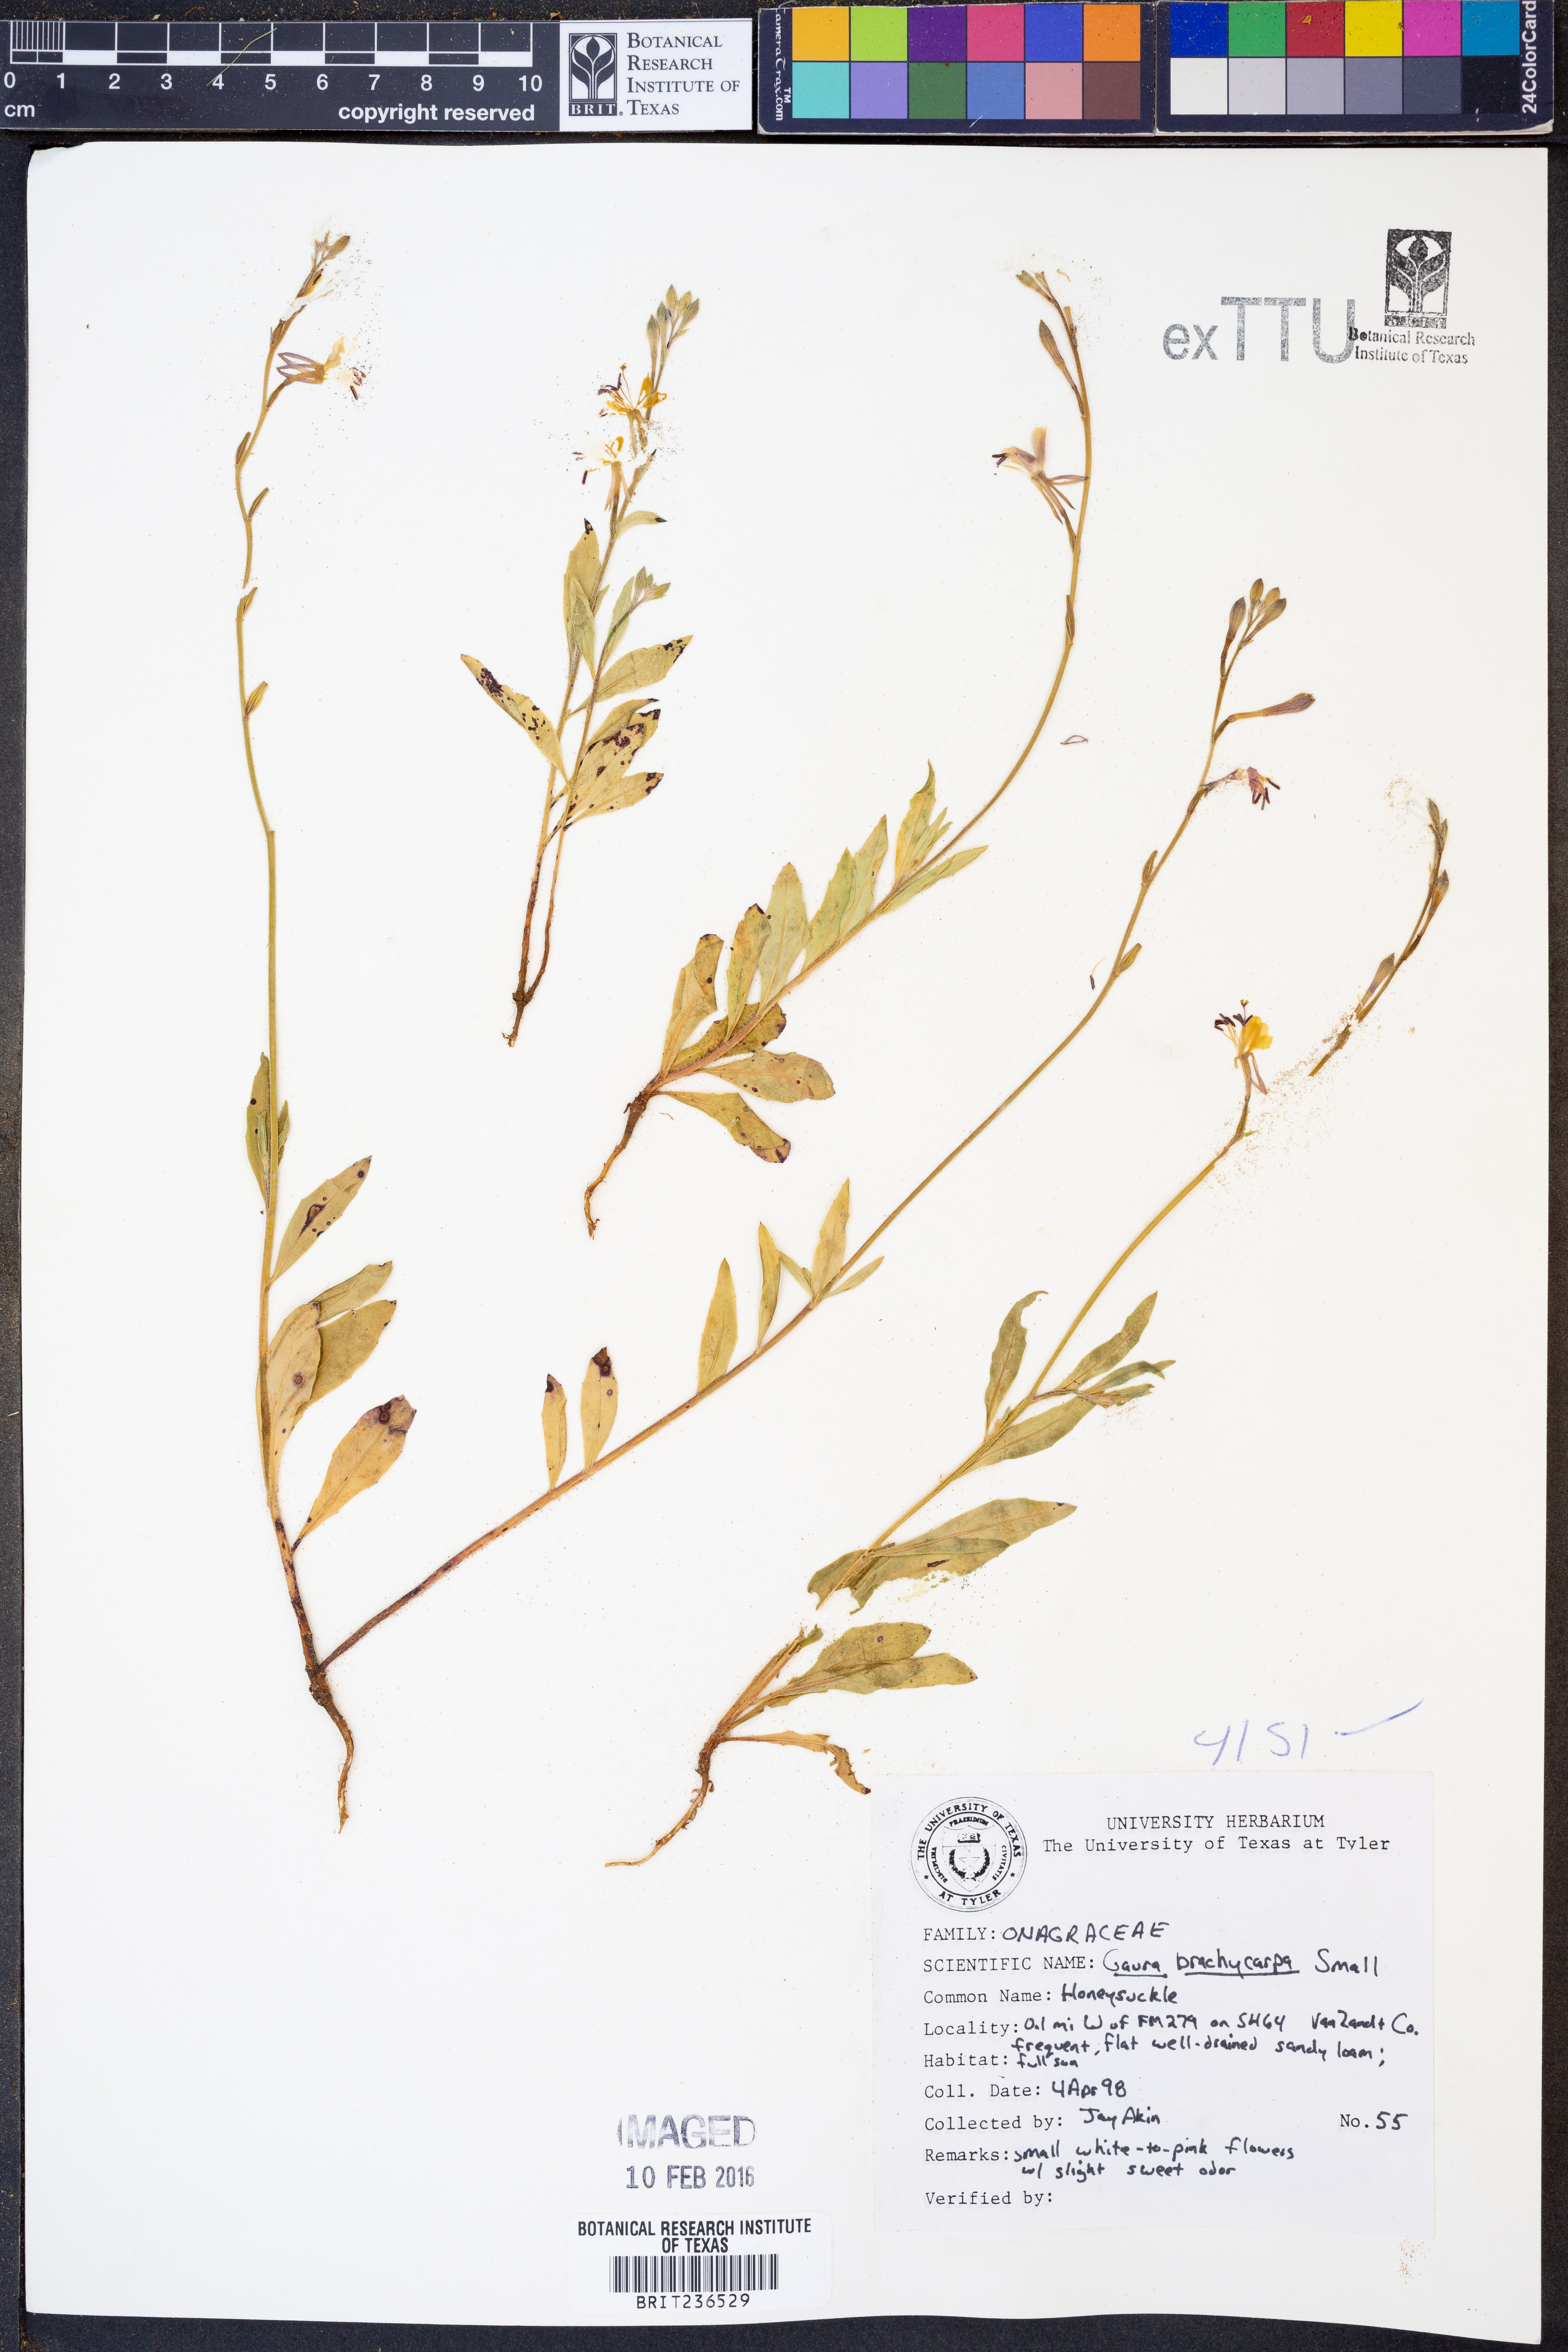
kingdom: Plantae
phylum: Tracheophyta
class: Magnoliopsida
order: Myrtales
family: Onagraceae
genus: Oenothera
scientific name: Oenothera patriciae
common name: Plains beeblossom
